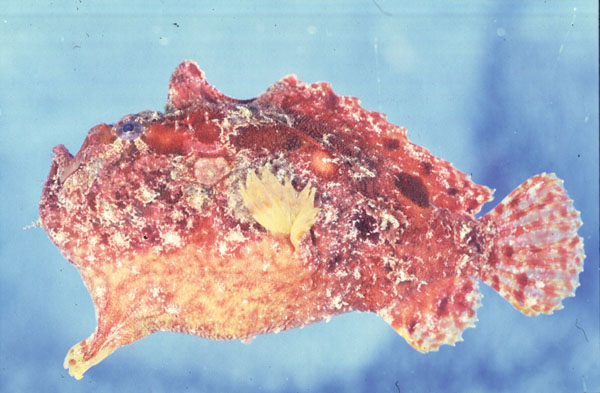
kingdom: Animalia
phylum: Chordata
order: Lophiiformes
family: Antennariidae
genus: Antennatus
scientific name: Antennatus coccineus
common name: Scarlet frogfish
